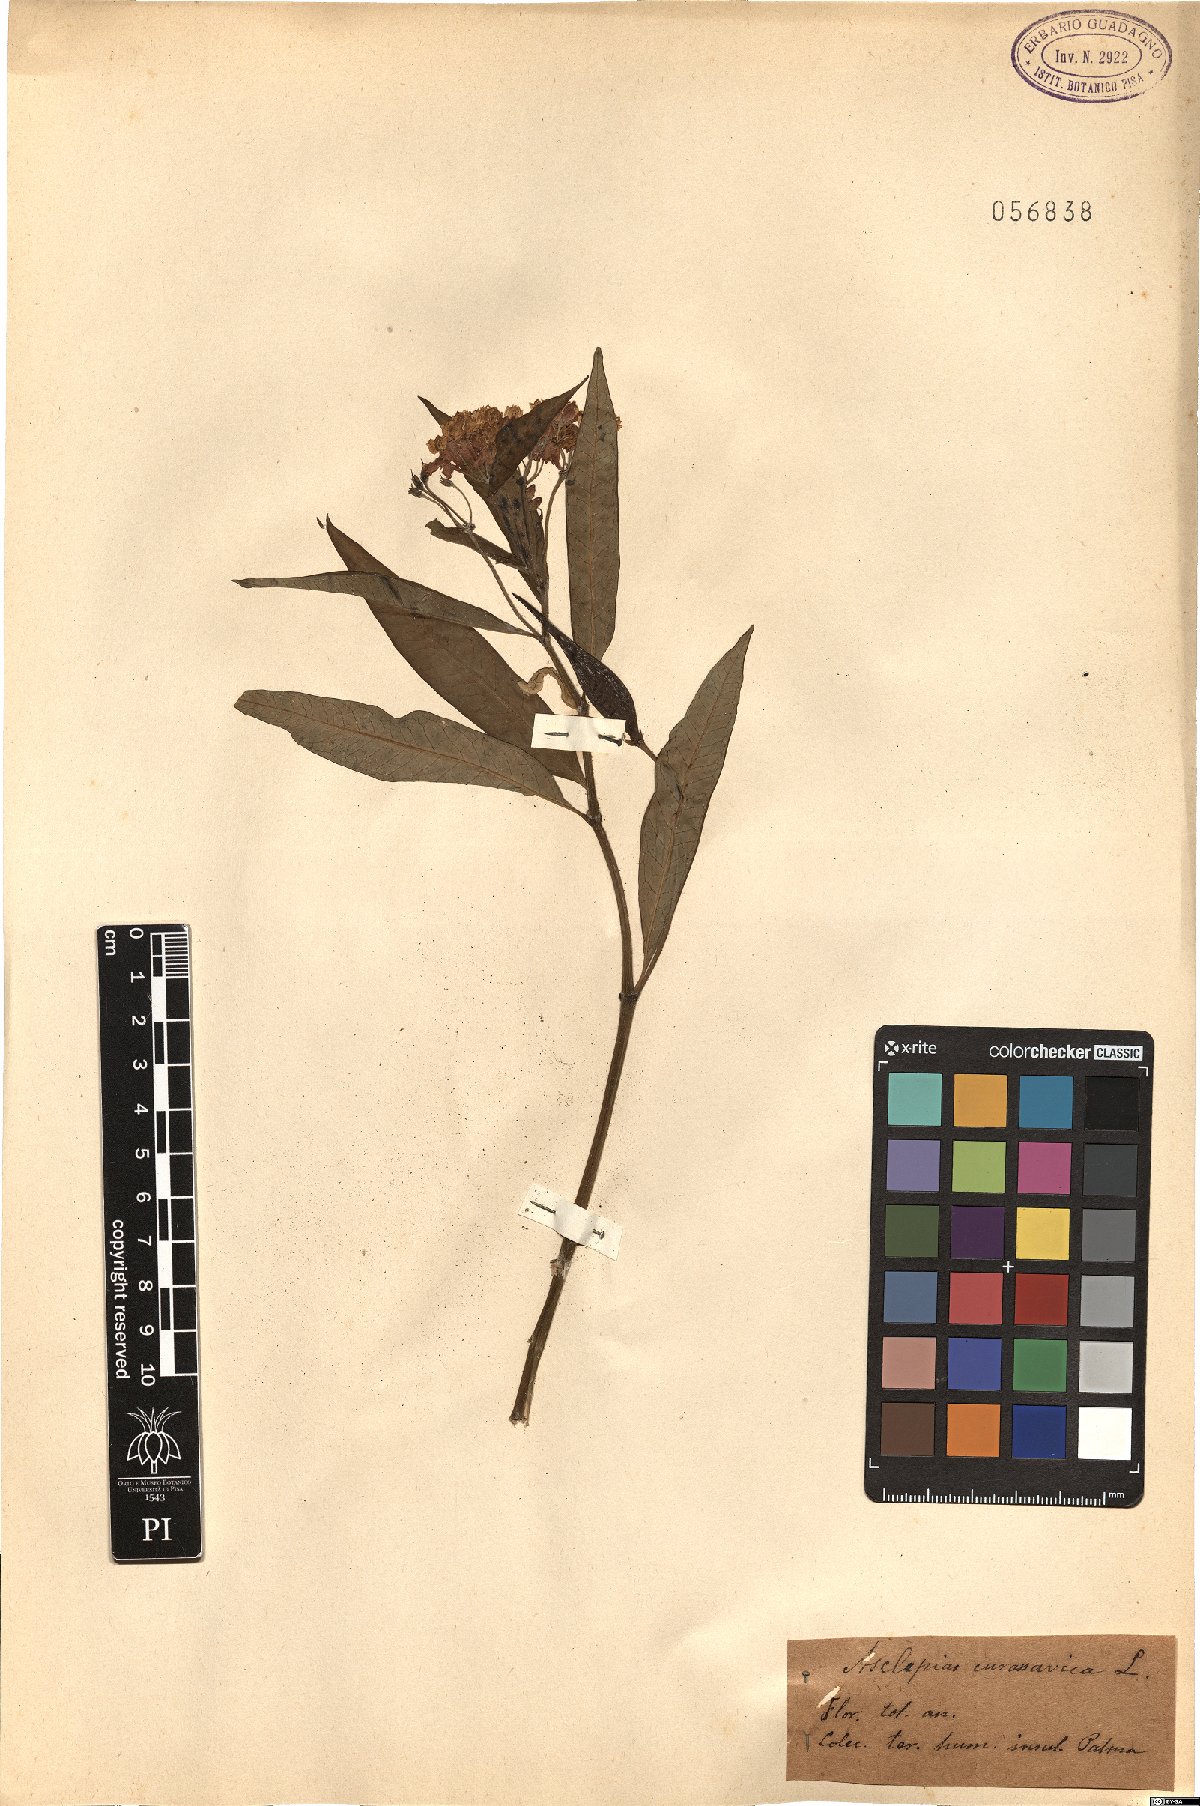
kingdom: Plantae
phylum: Tracheophyta
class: Magnoliopsida
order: Gentianales
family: Apocynaceae
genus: Asclepias
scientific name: Asclepias curassavica
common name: Bloodflower
